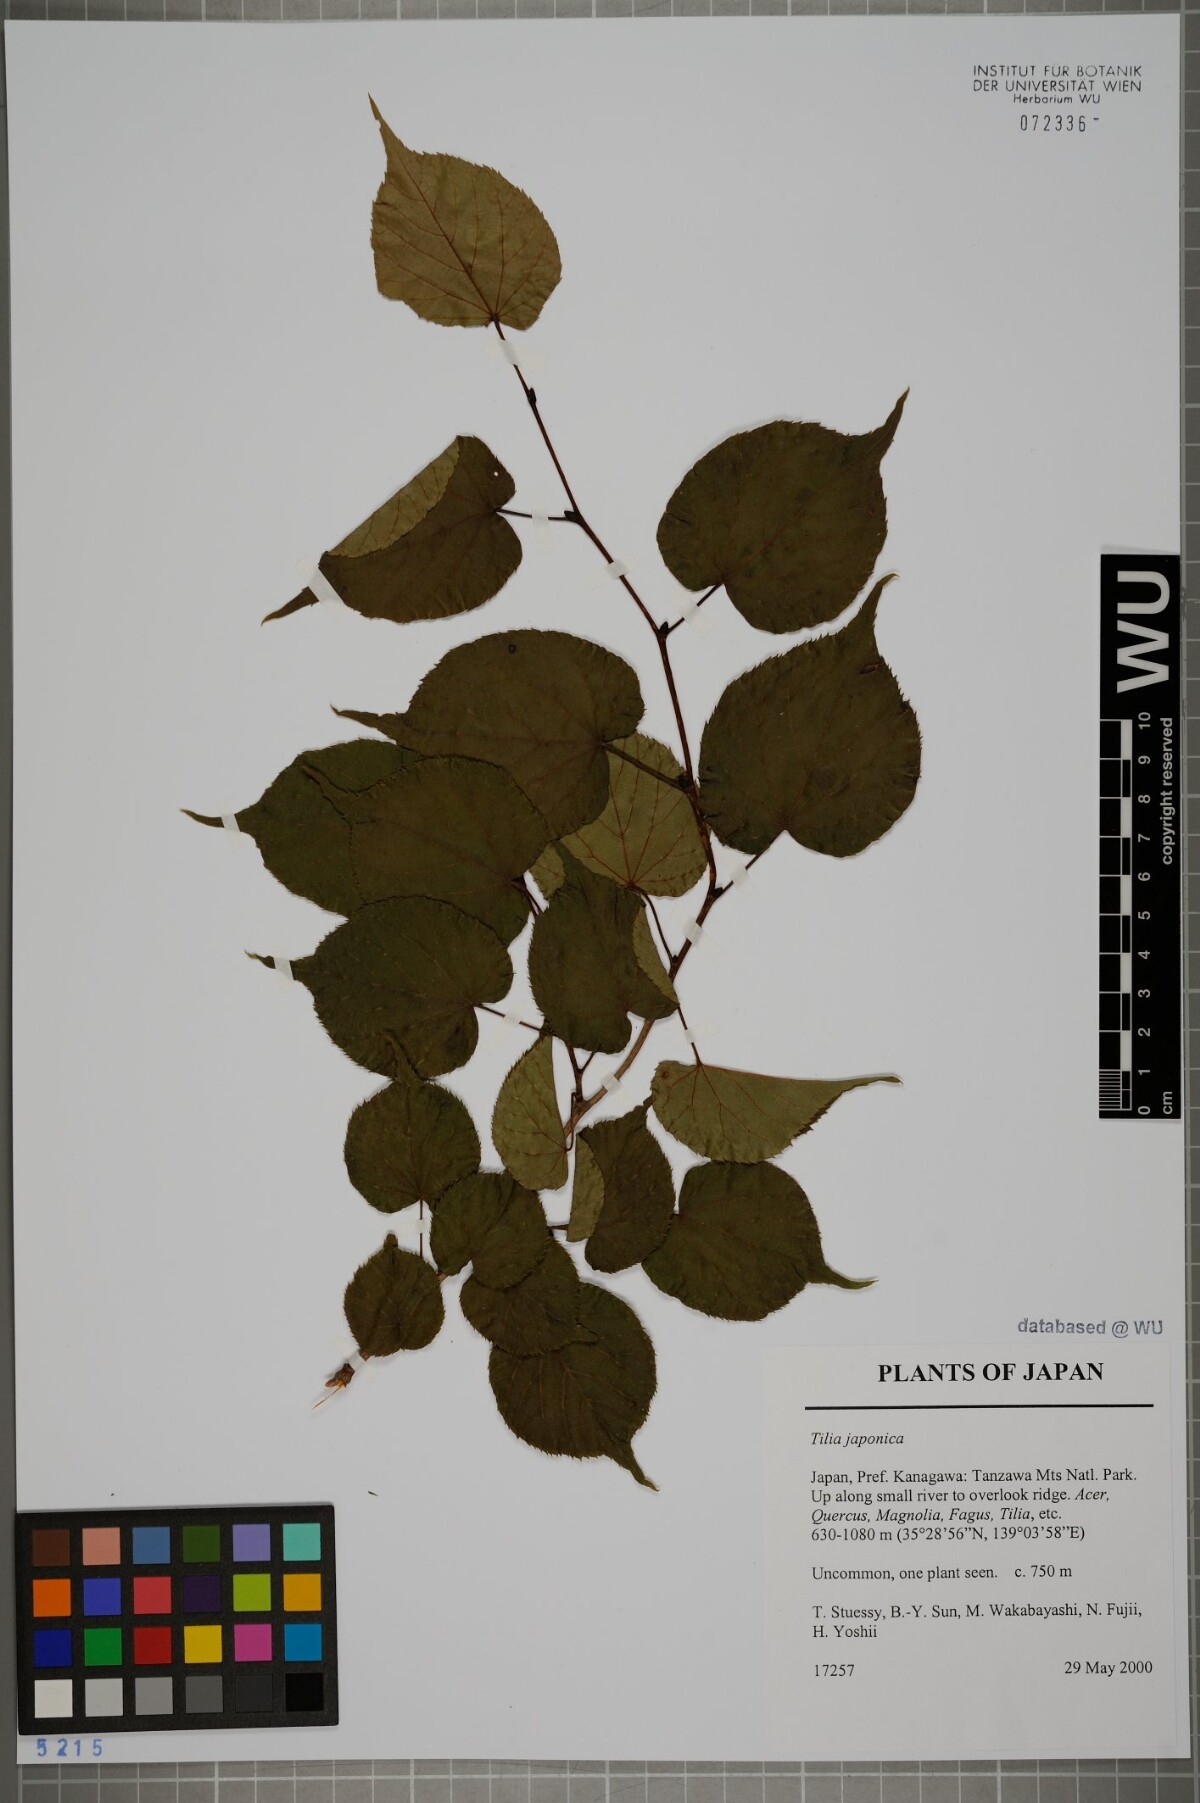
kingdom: Plantae
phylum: Tracheophyta
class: Magnoliopsida
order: Malvales
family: Malvaceae
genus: Tilia
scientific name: Tilia japonica
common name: Japanese lime
